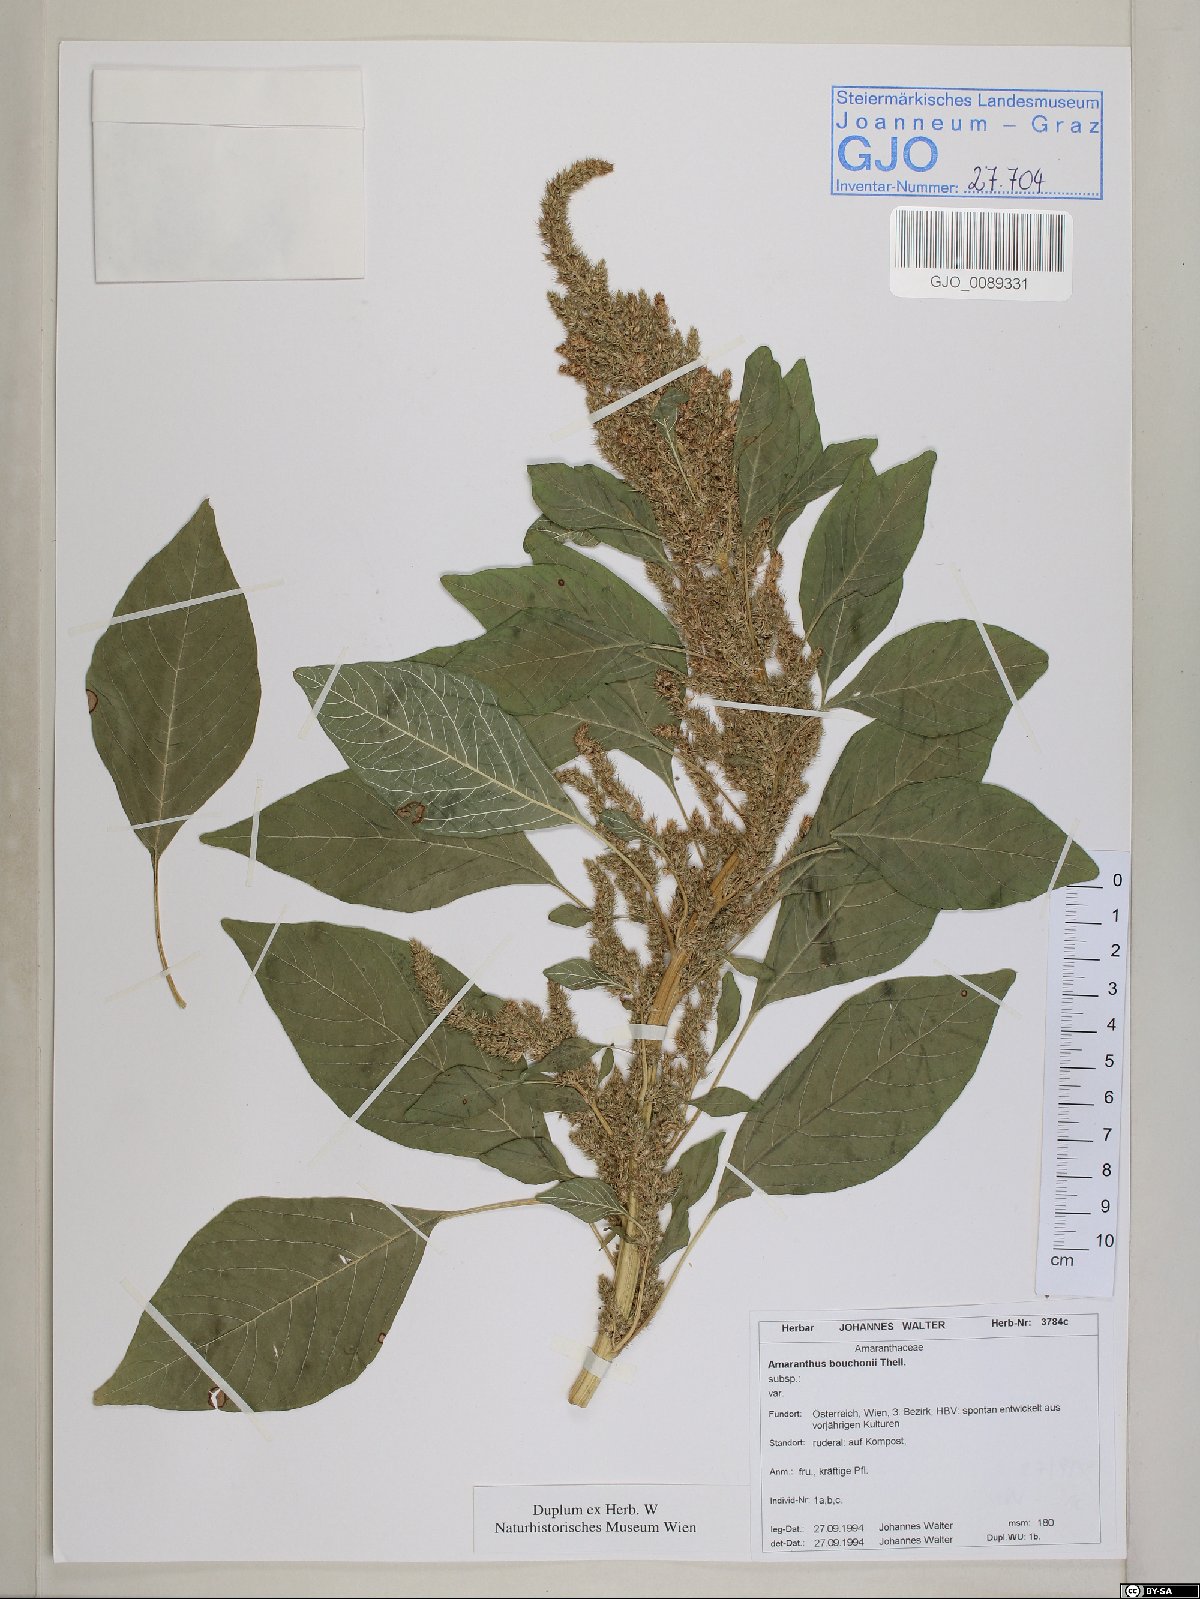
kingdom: Plantae
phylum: Tracheophyta
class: Magnoliopsida
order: Caryophyllales
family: Amaranthaceae
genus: Amaranthus
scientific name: Amaranthus bouchonii
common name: Indehiscent amaranth
